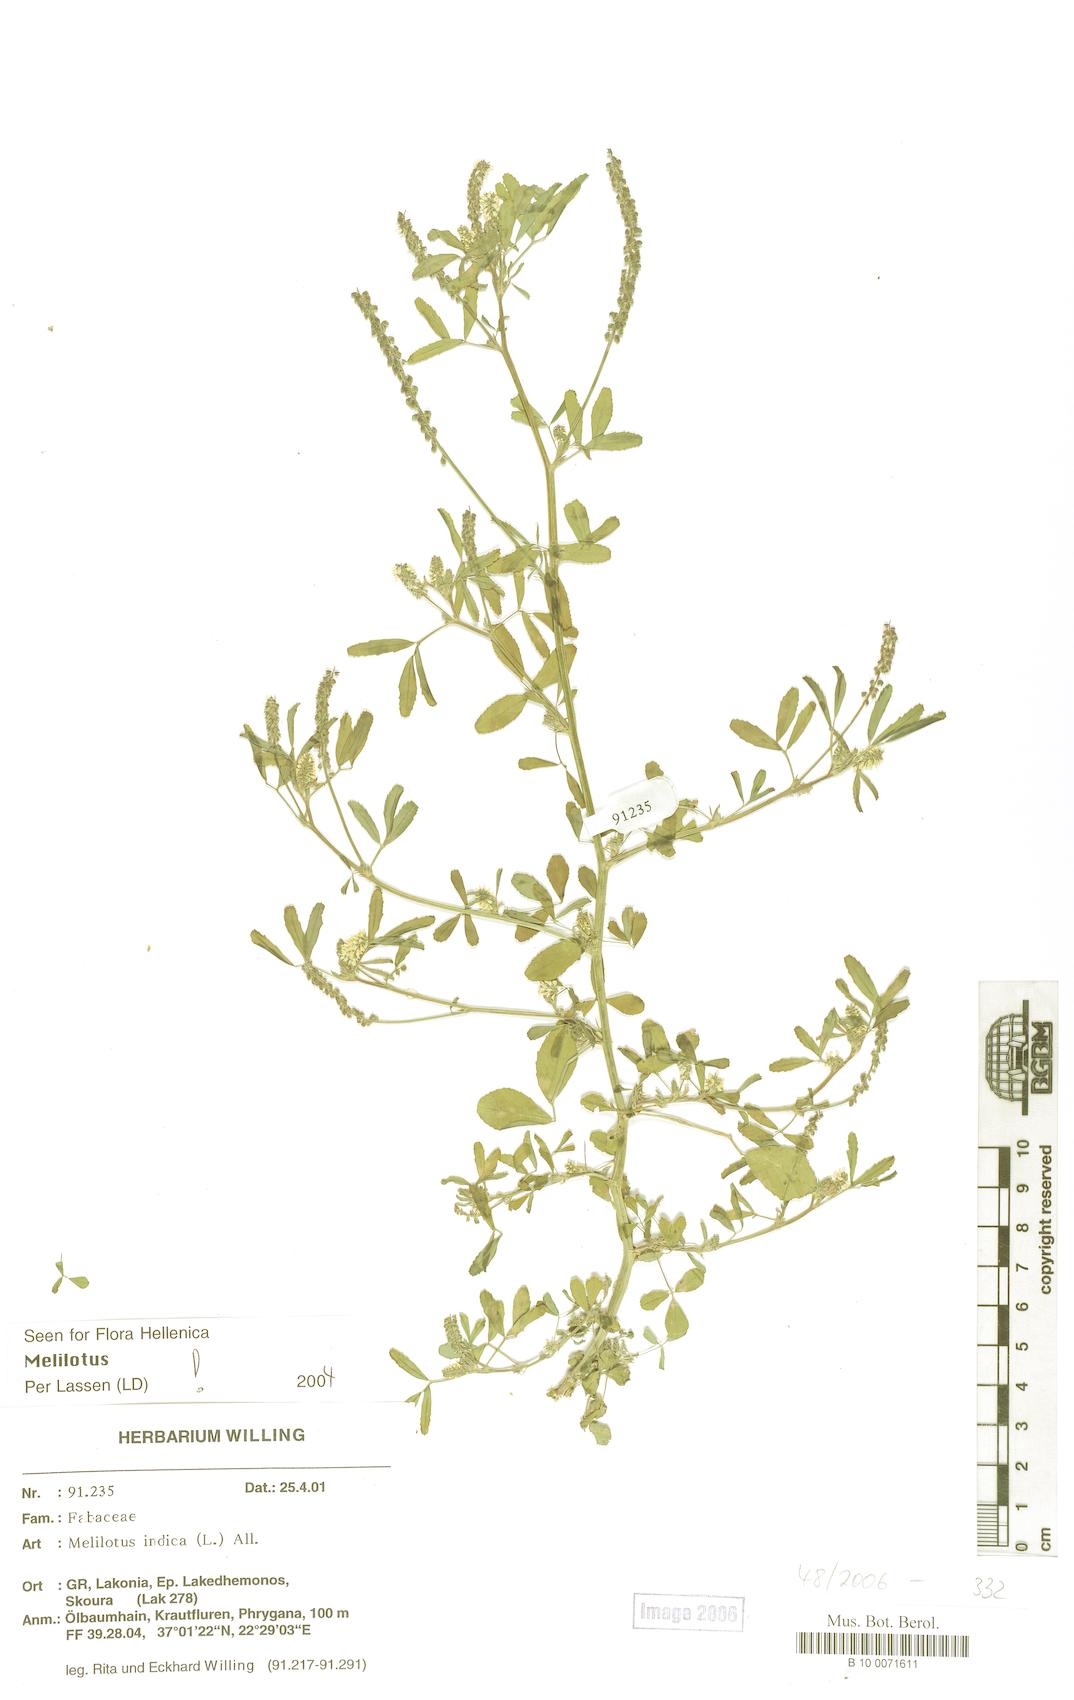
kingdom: Plantae
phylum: Tracheophyta
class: Magnoliopsida
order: Fabales
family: Fabaceae
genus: Melilotus
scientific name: Melilotus indicus
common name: Small melilot
